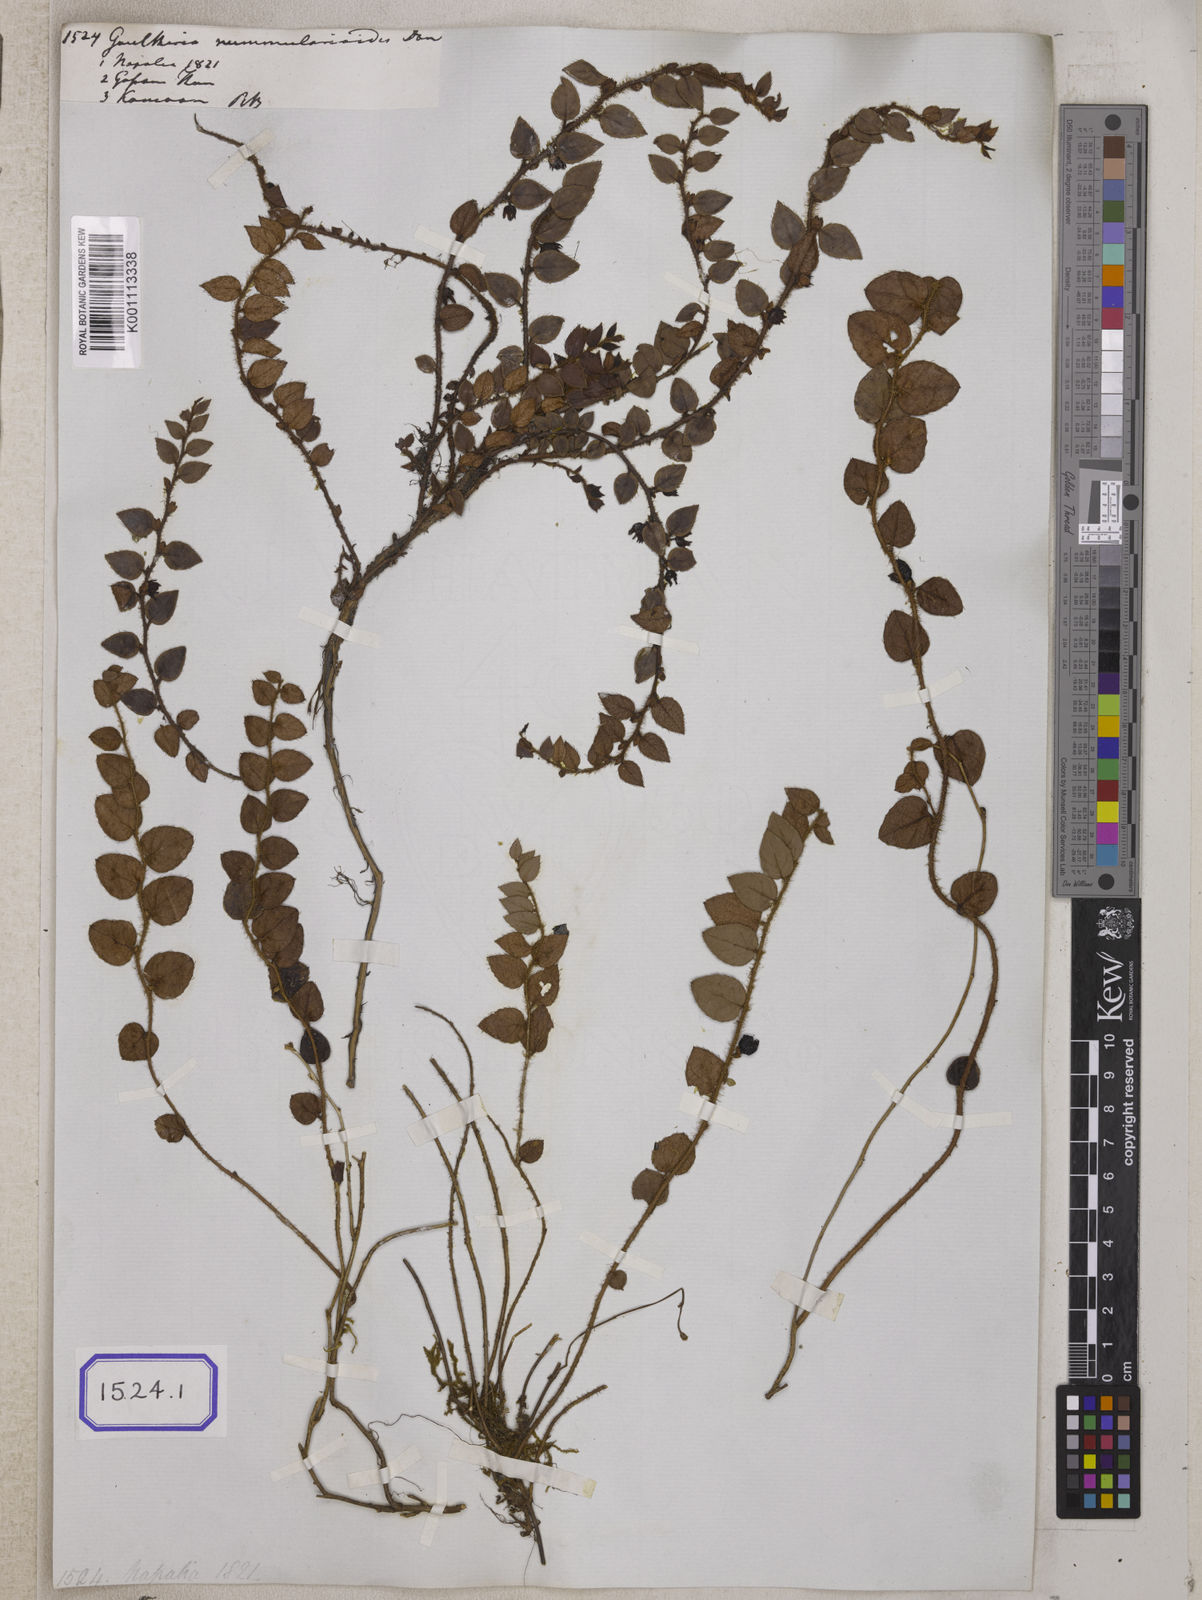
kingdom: Plantae
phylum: Tracheophyta
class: Magnoliopsida
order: Ericales
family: Ericaceae
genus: Gaultheria
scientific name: Gaultheria nummularioides
